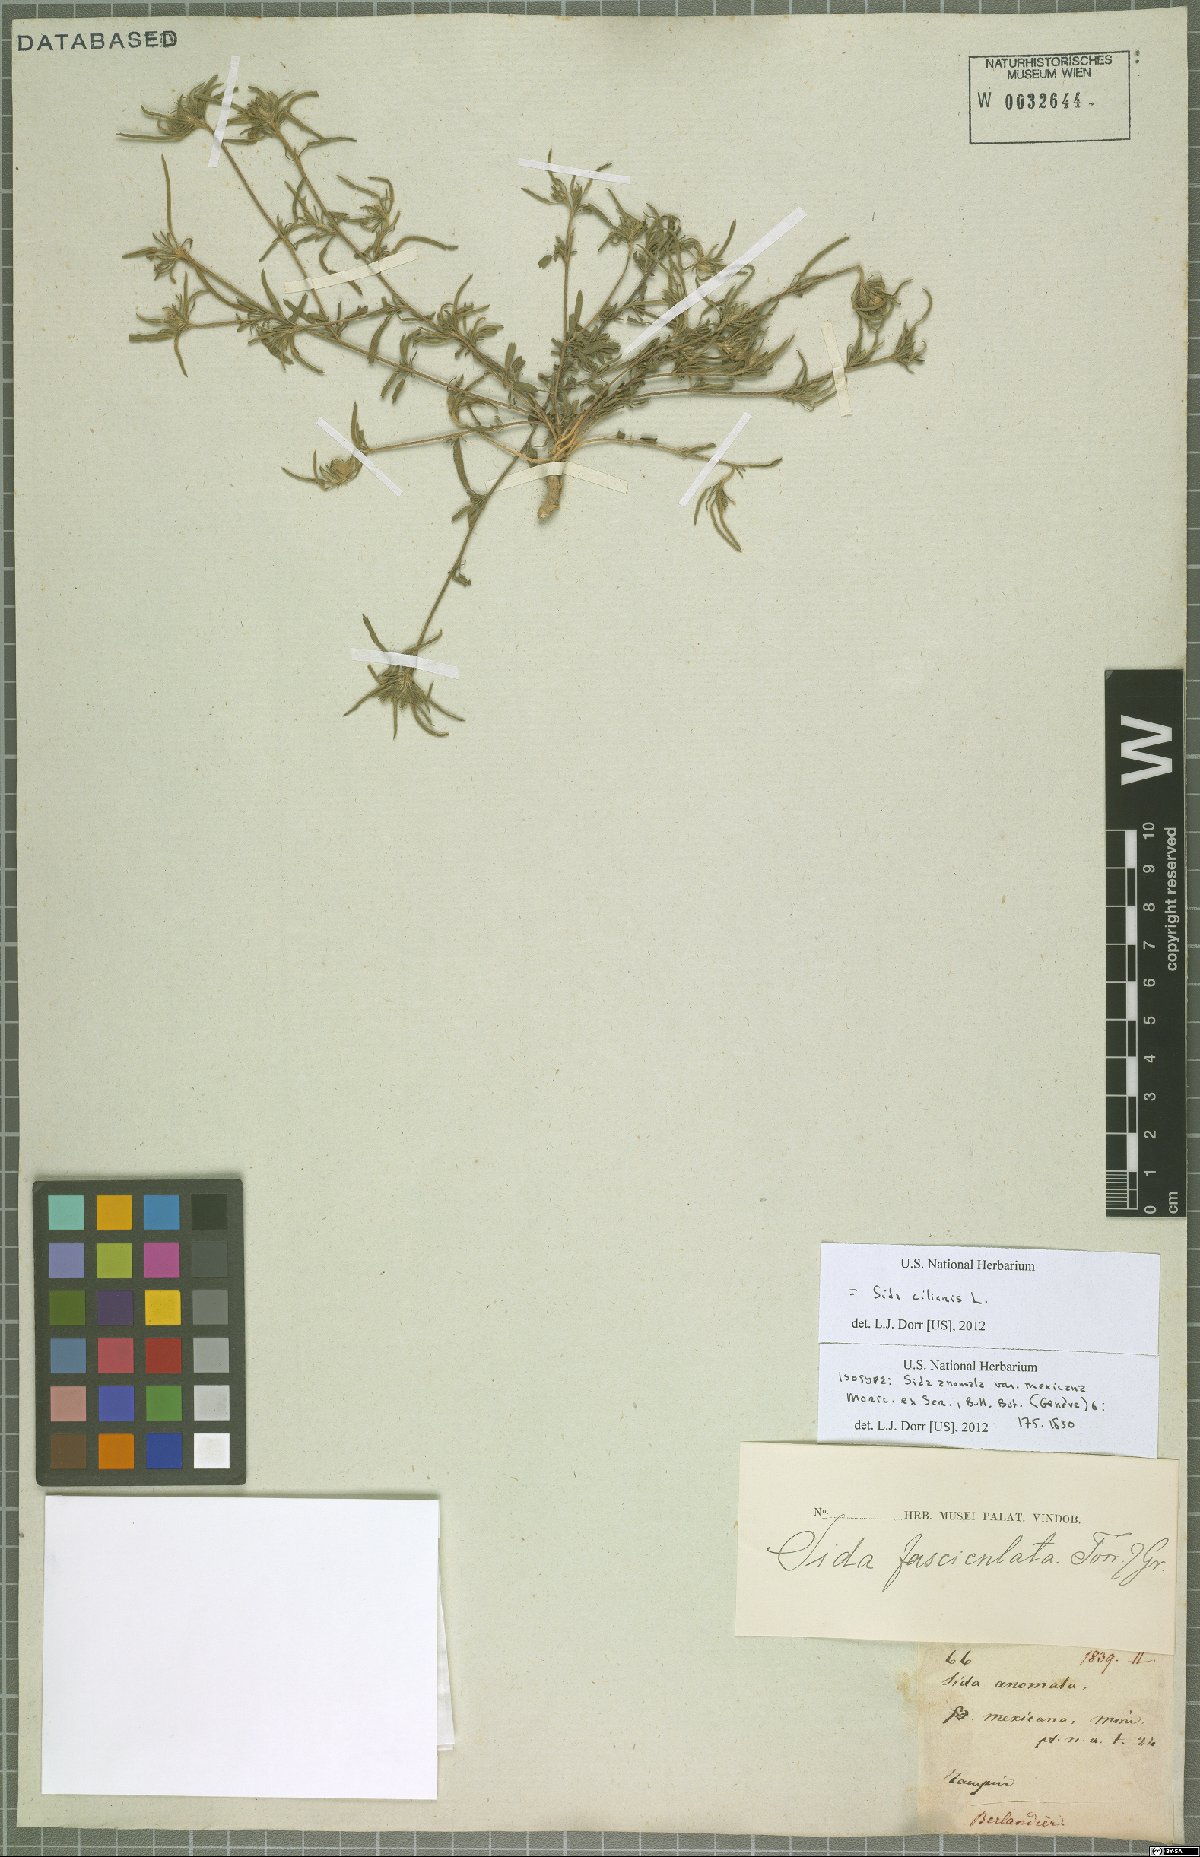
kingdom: Plantae
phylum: Tracheophyta
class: Magnoliopsida
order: Malvales
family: Malvaceae
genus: Sida
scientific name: Sida ciliaris
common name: Bracted fanpetals
